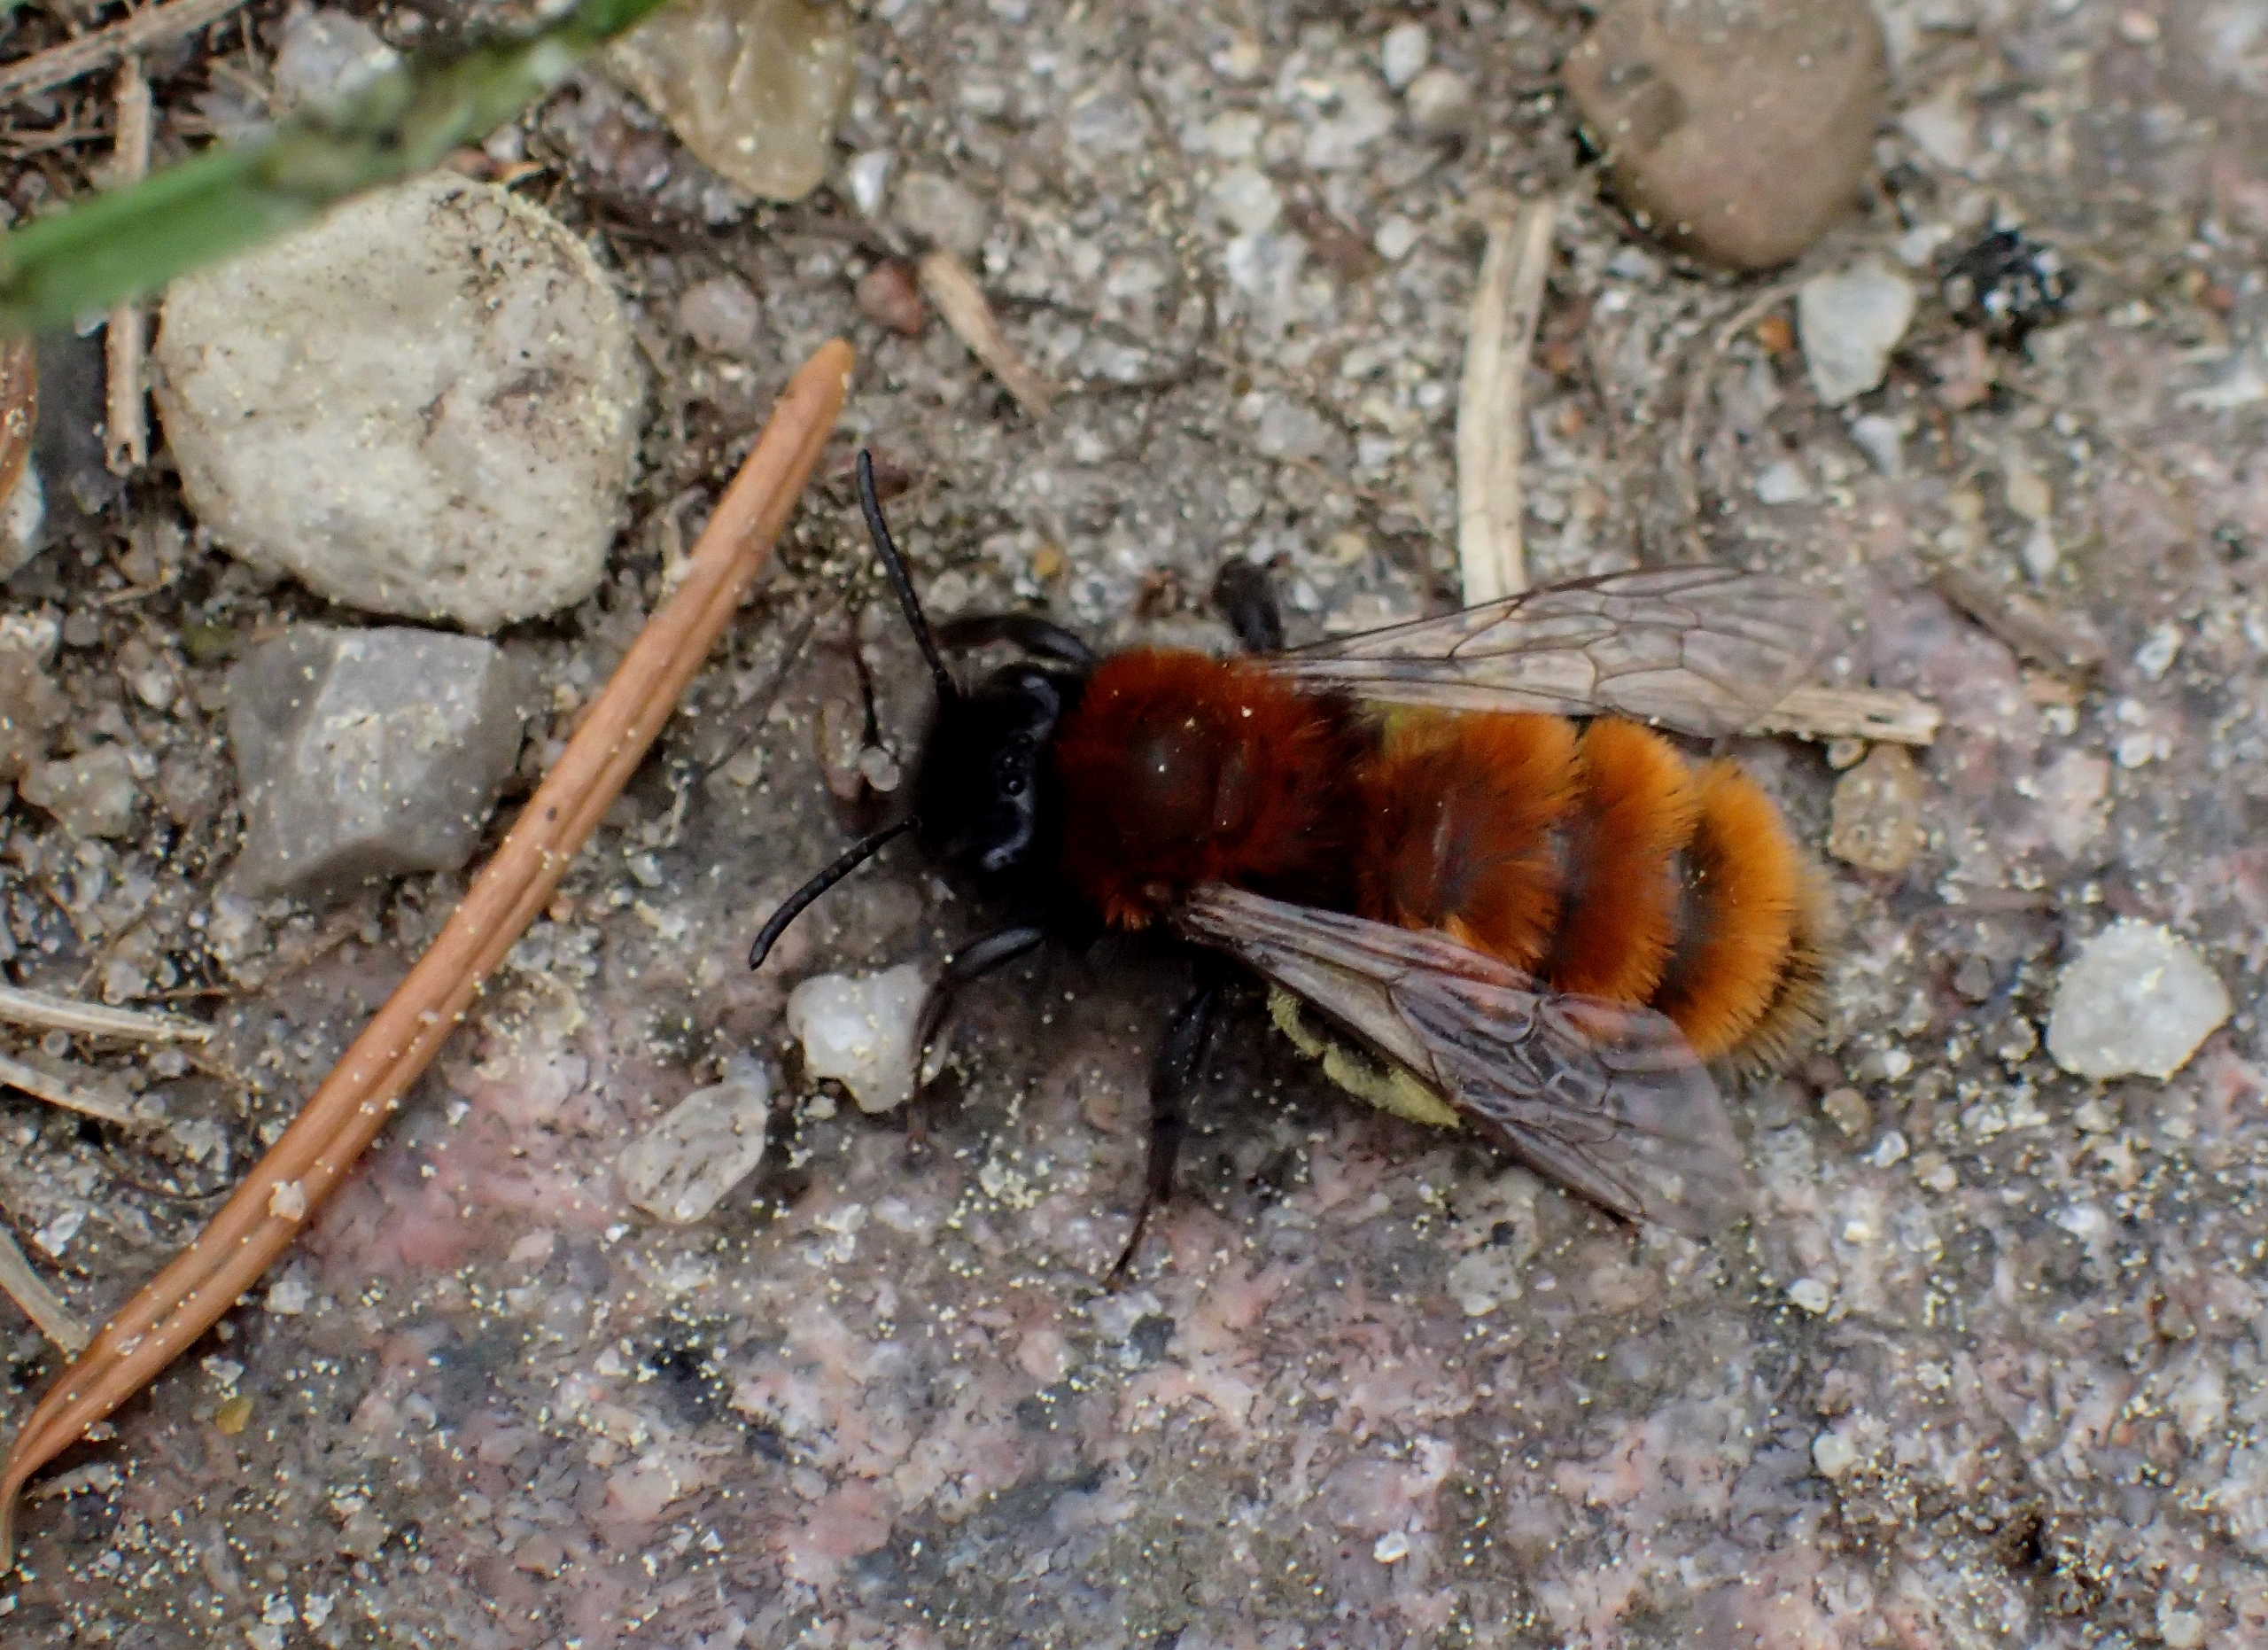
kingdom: Animalia
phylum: Arthropoda
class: Insecta
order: Hymenoptera
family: Andrenidae
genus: Andrena
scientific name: Andrena fulva
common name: Rødpelset jordbi
